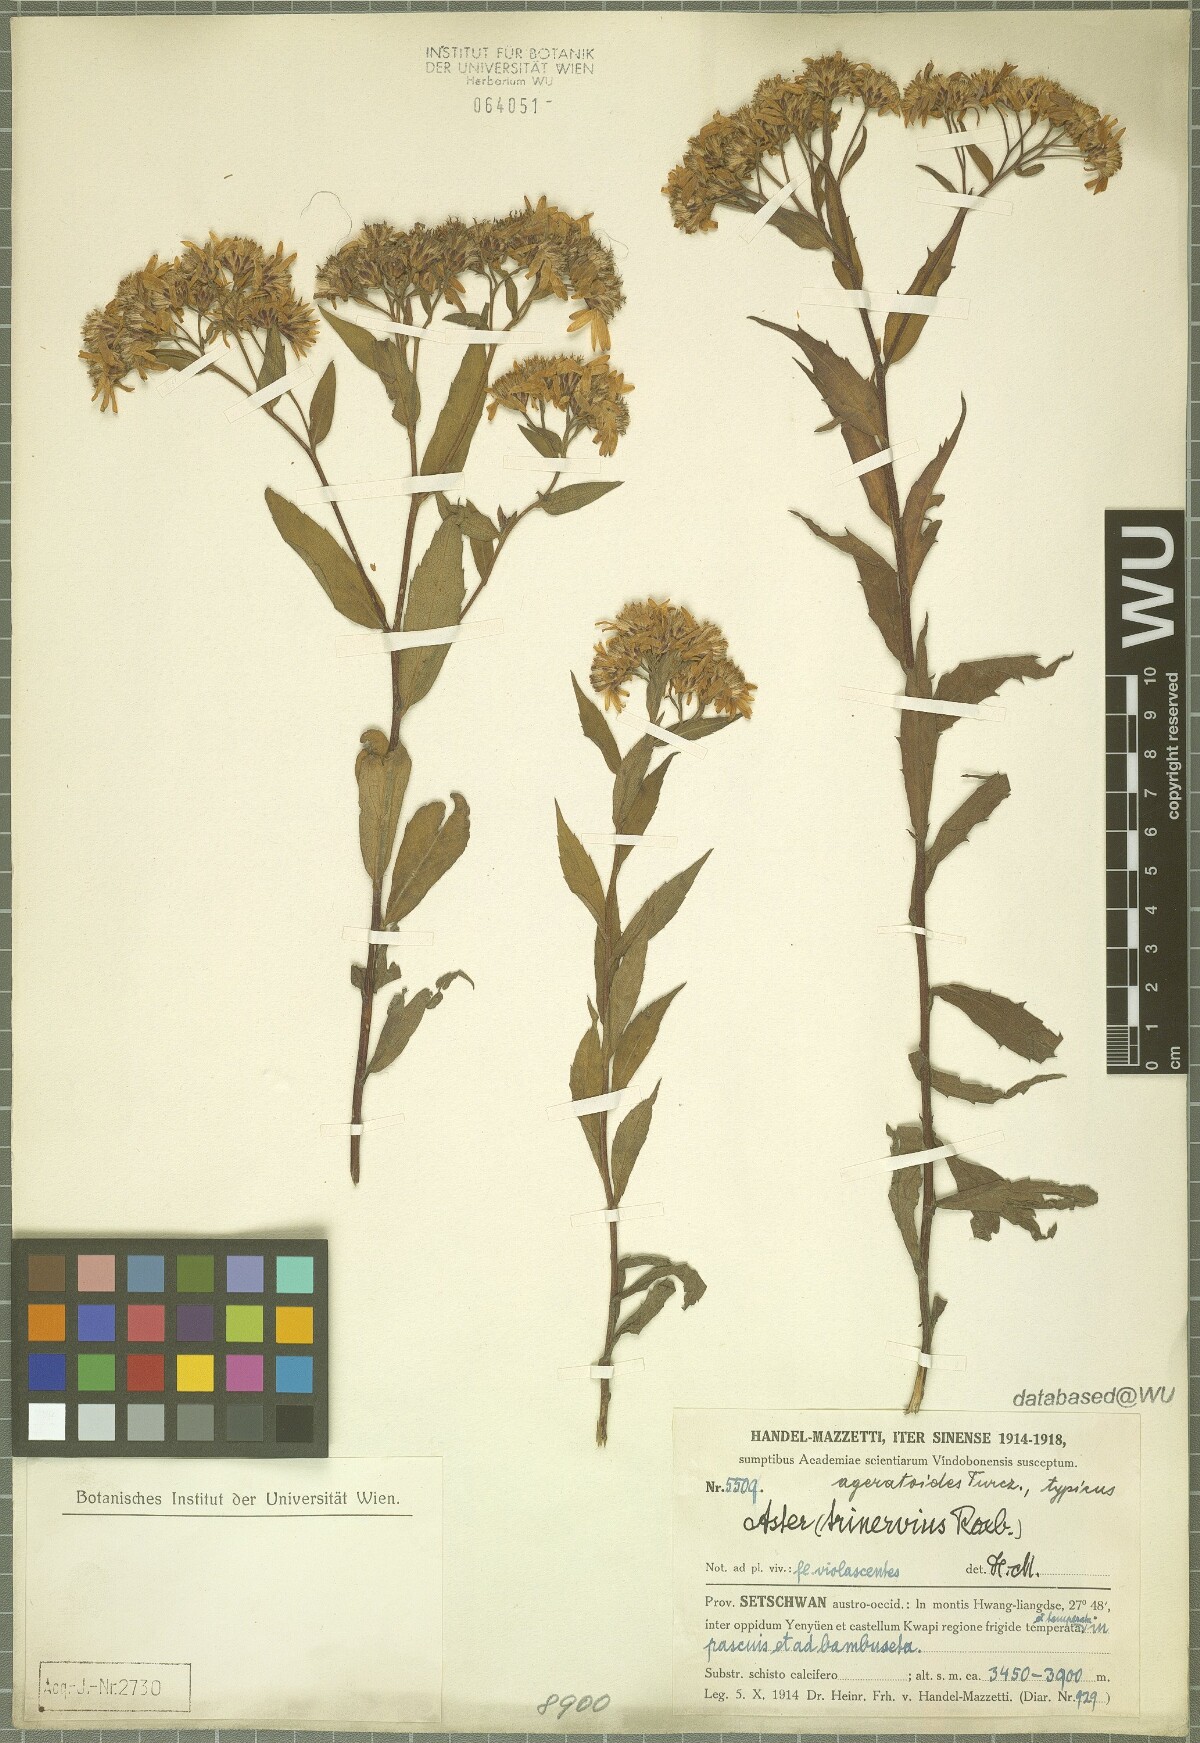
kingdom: Plantae
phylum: Tracheophyta
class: Magnoliopsida
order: Asterales
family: Asteraceae
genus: Aster
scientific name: Aster ageratoides
